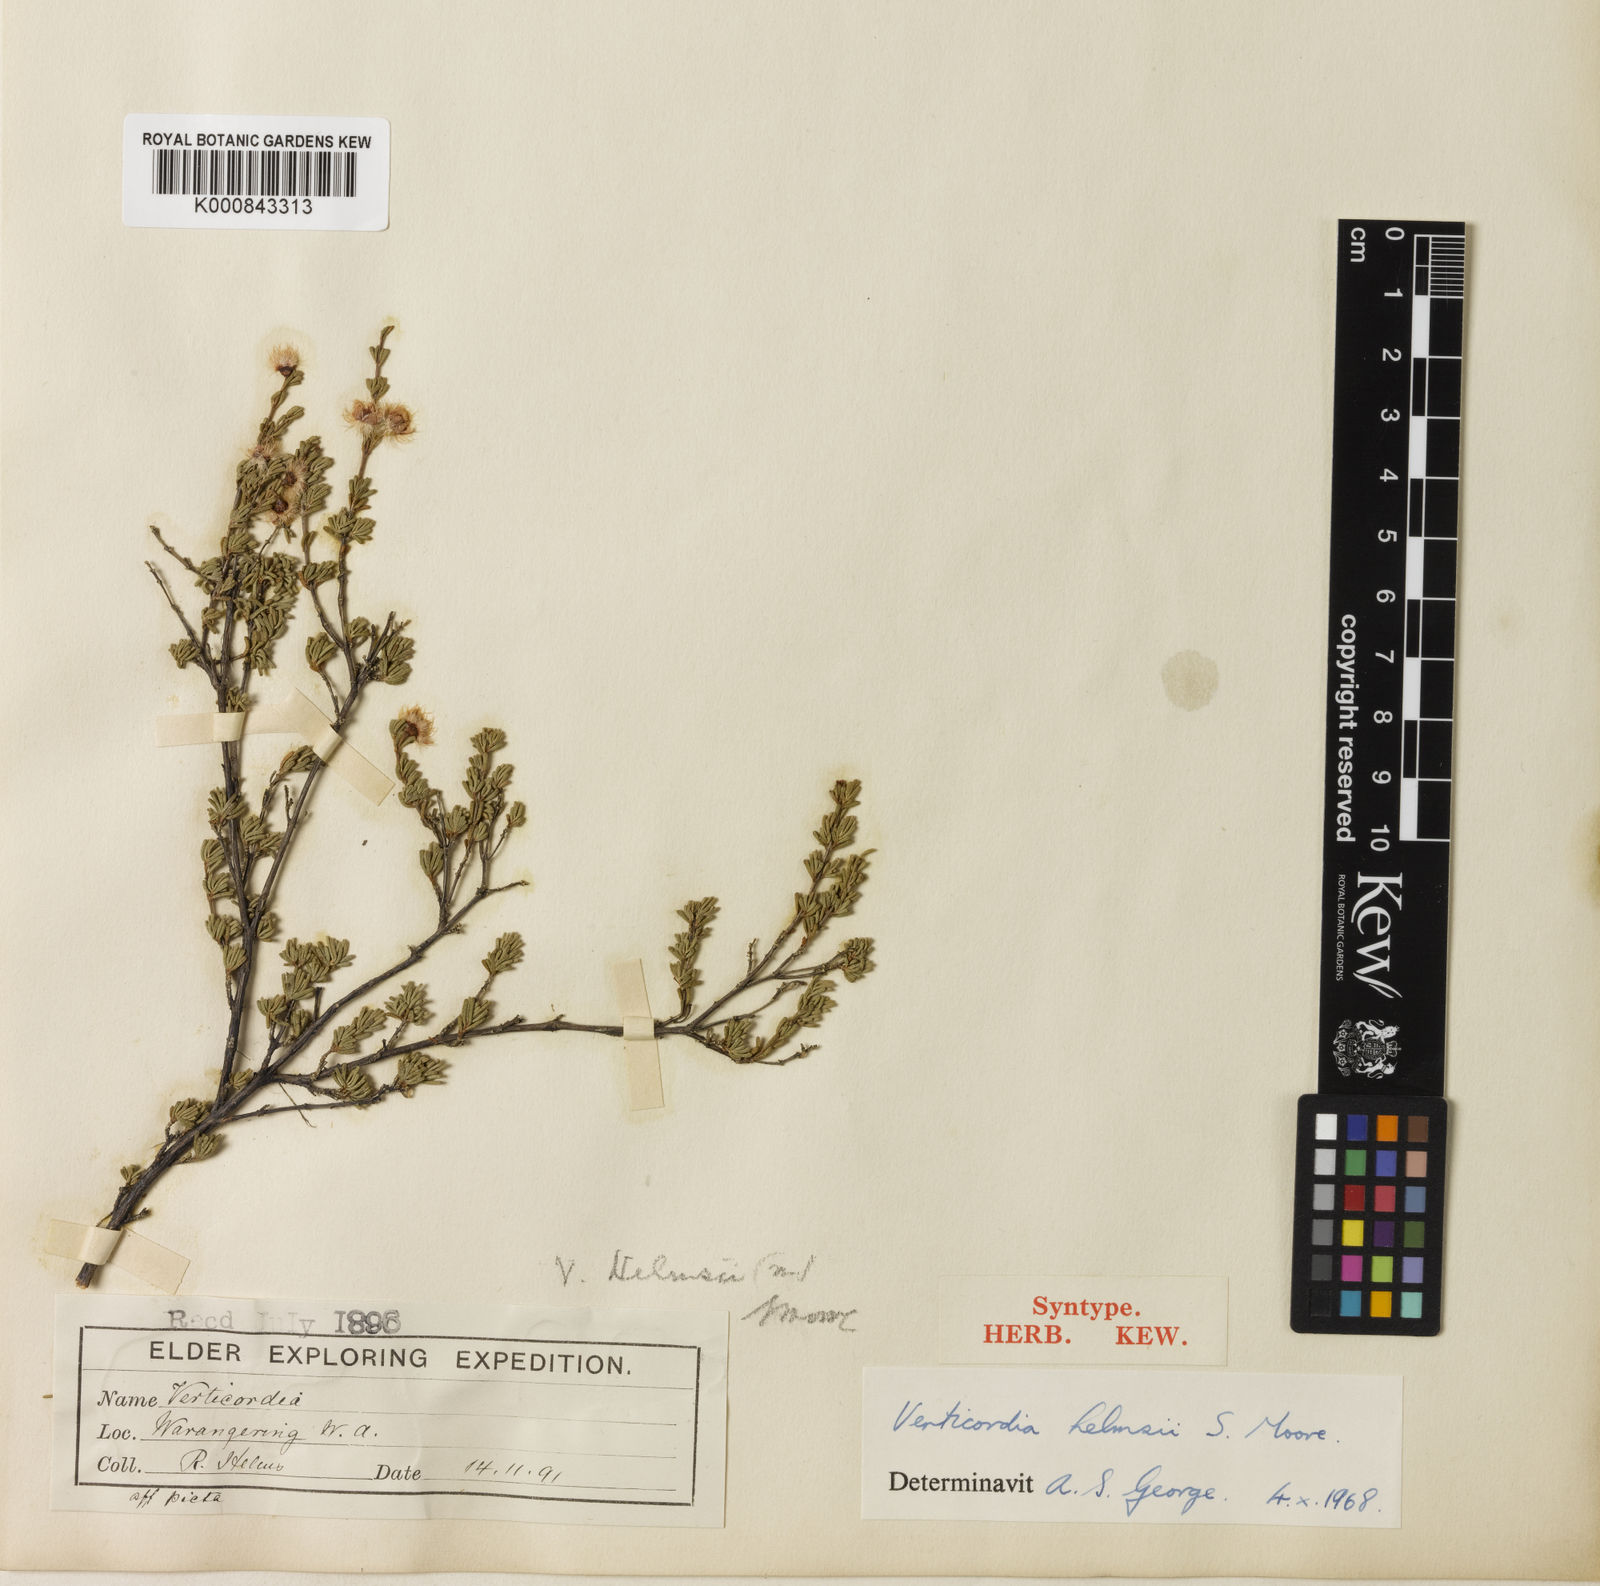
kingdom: Plantae
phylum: Tracheophyta
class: Magnoliopsida
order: Myrtales
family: Myrtaceae
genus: Verticordia
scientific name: Verticordia helmsii
